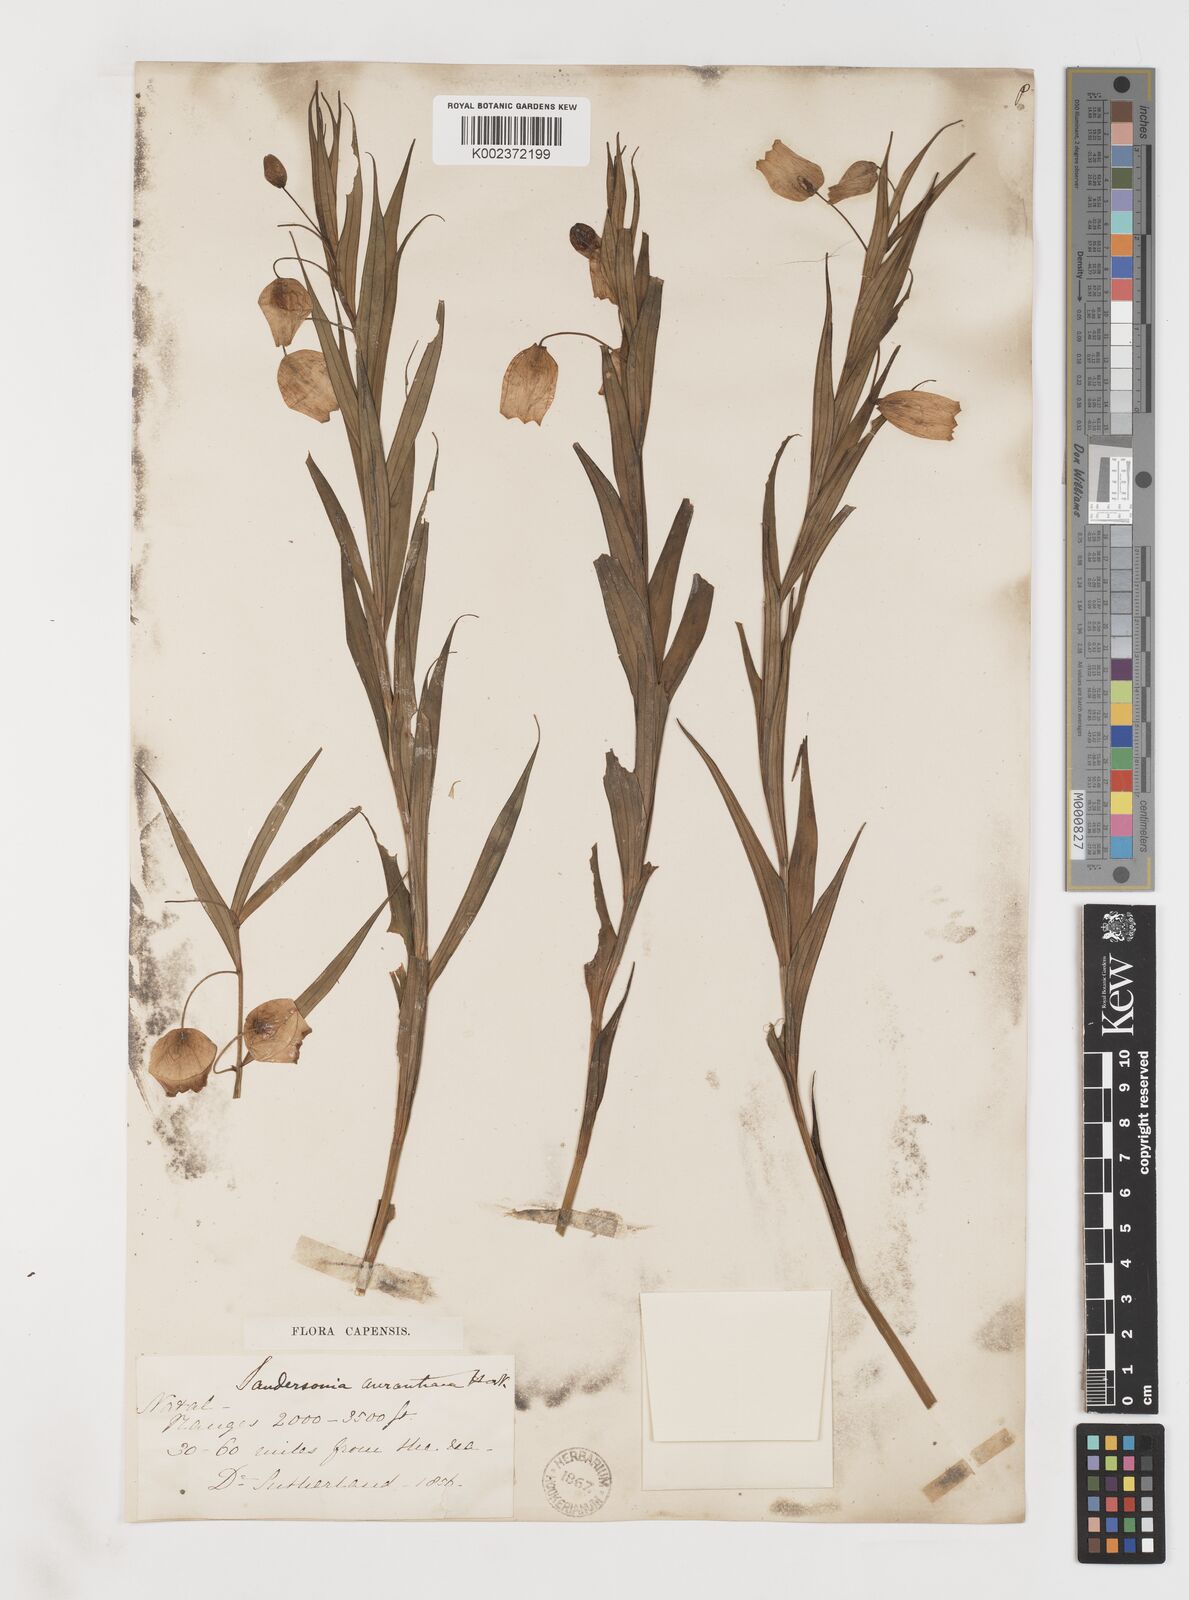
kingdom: Plantae
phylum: Tracheophyta
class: Liliopsida
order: Liliales
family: Colchicaceae
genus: Sandersonia
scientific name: Sandersonia aurantiaca
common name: Chinese-lantern-lily
